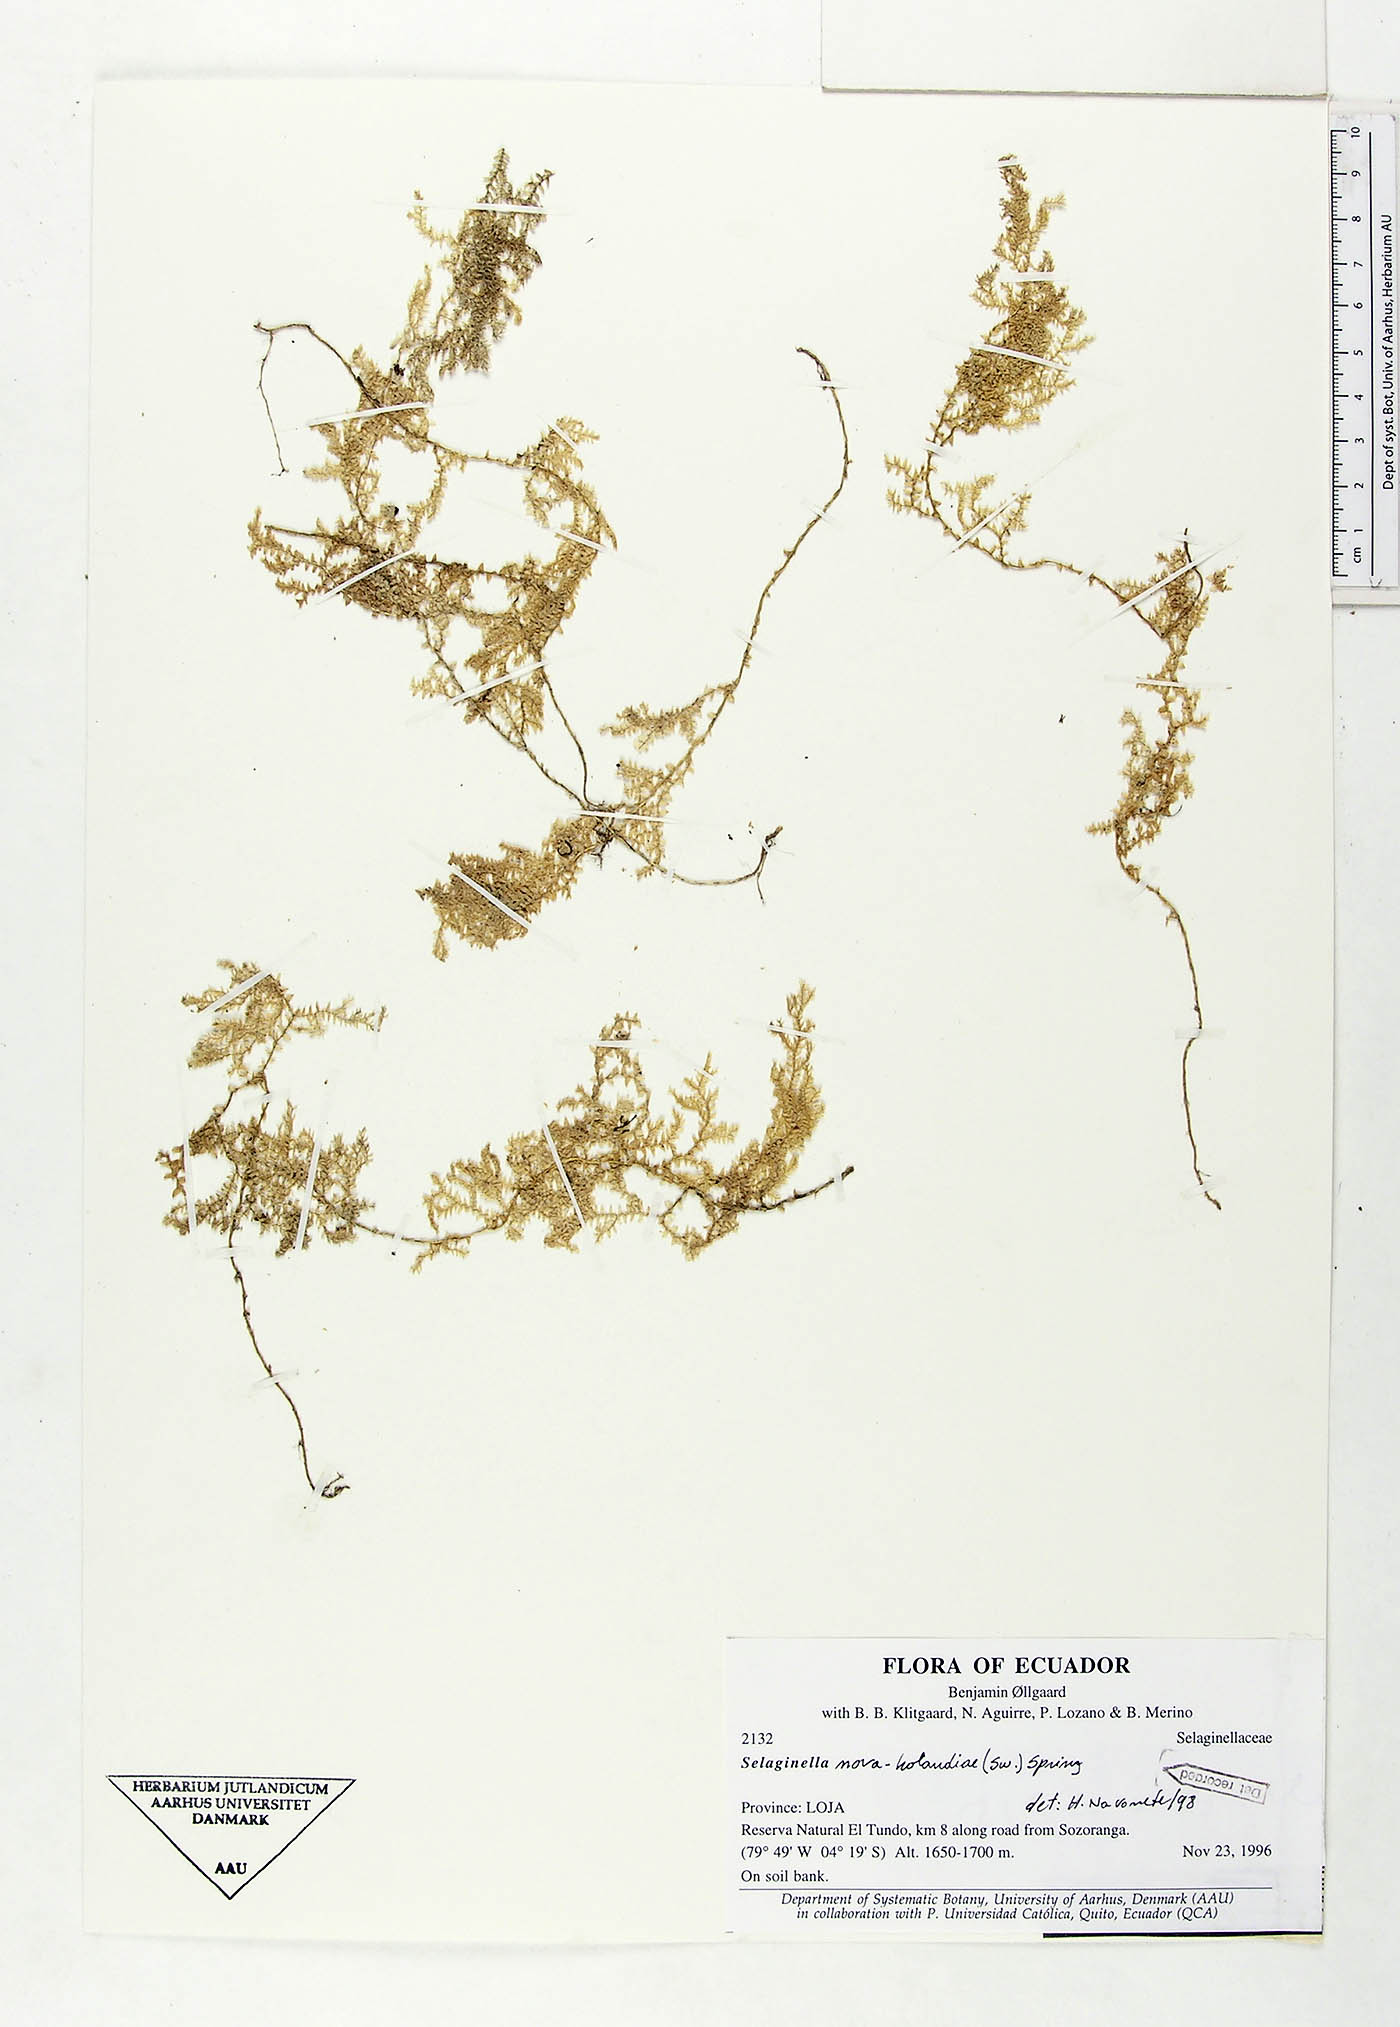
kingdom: Plantae
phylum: Tracheophyta
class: Lycopodiopsida
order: Selaginellales
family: Selaginellaceae
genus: Selaginella
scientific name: Selaginella novae-hollandiae
